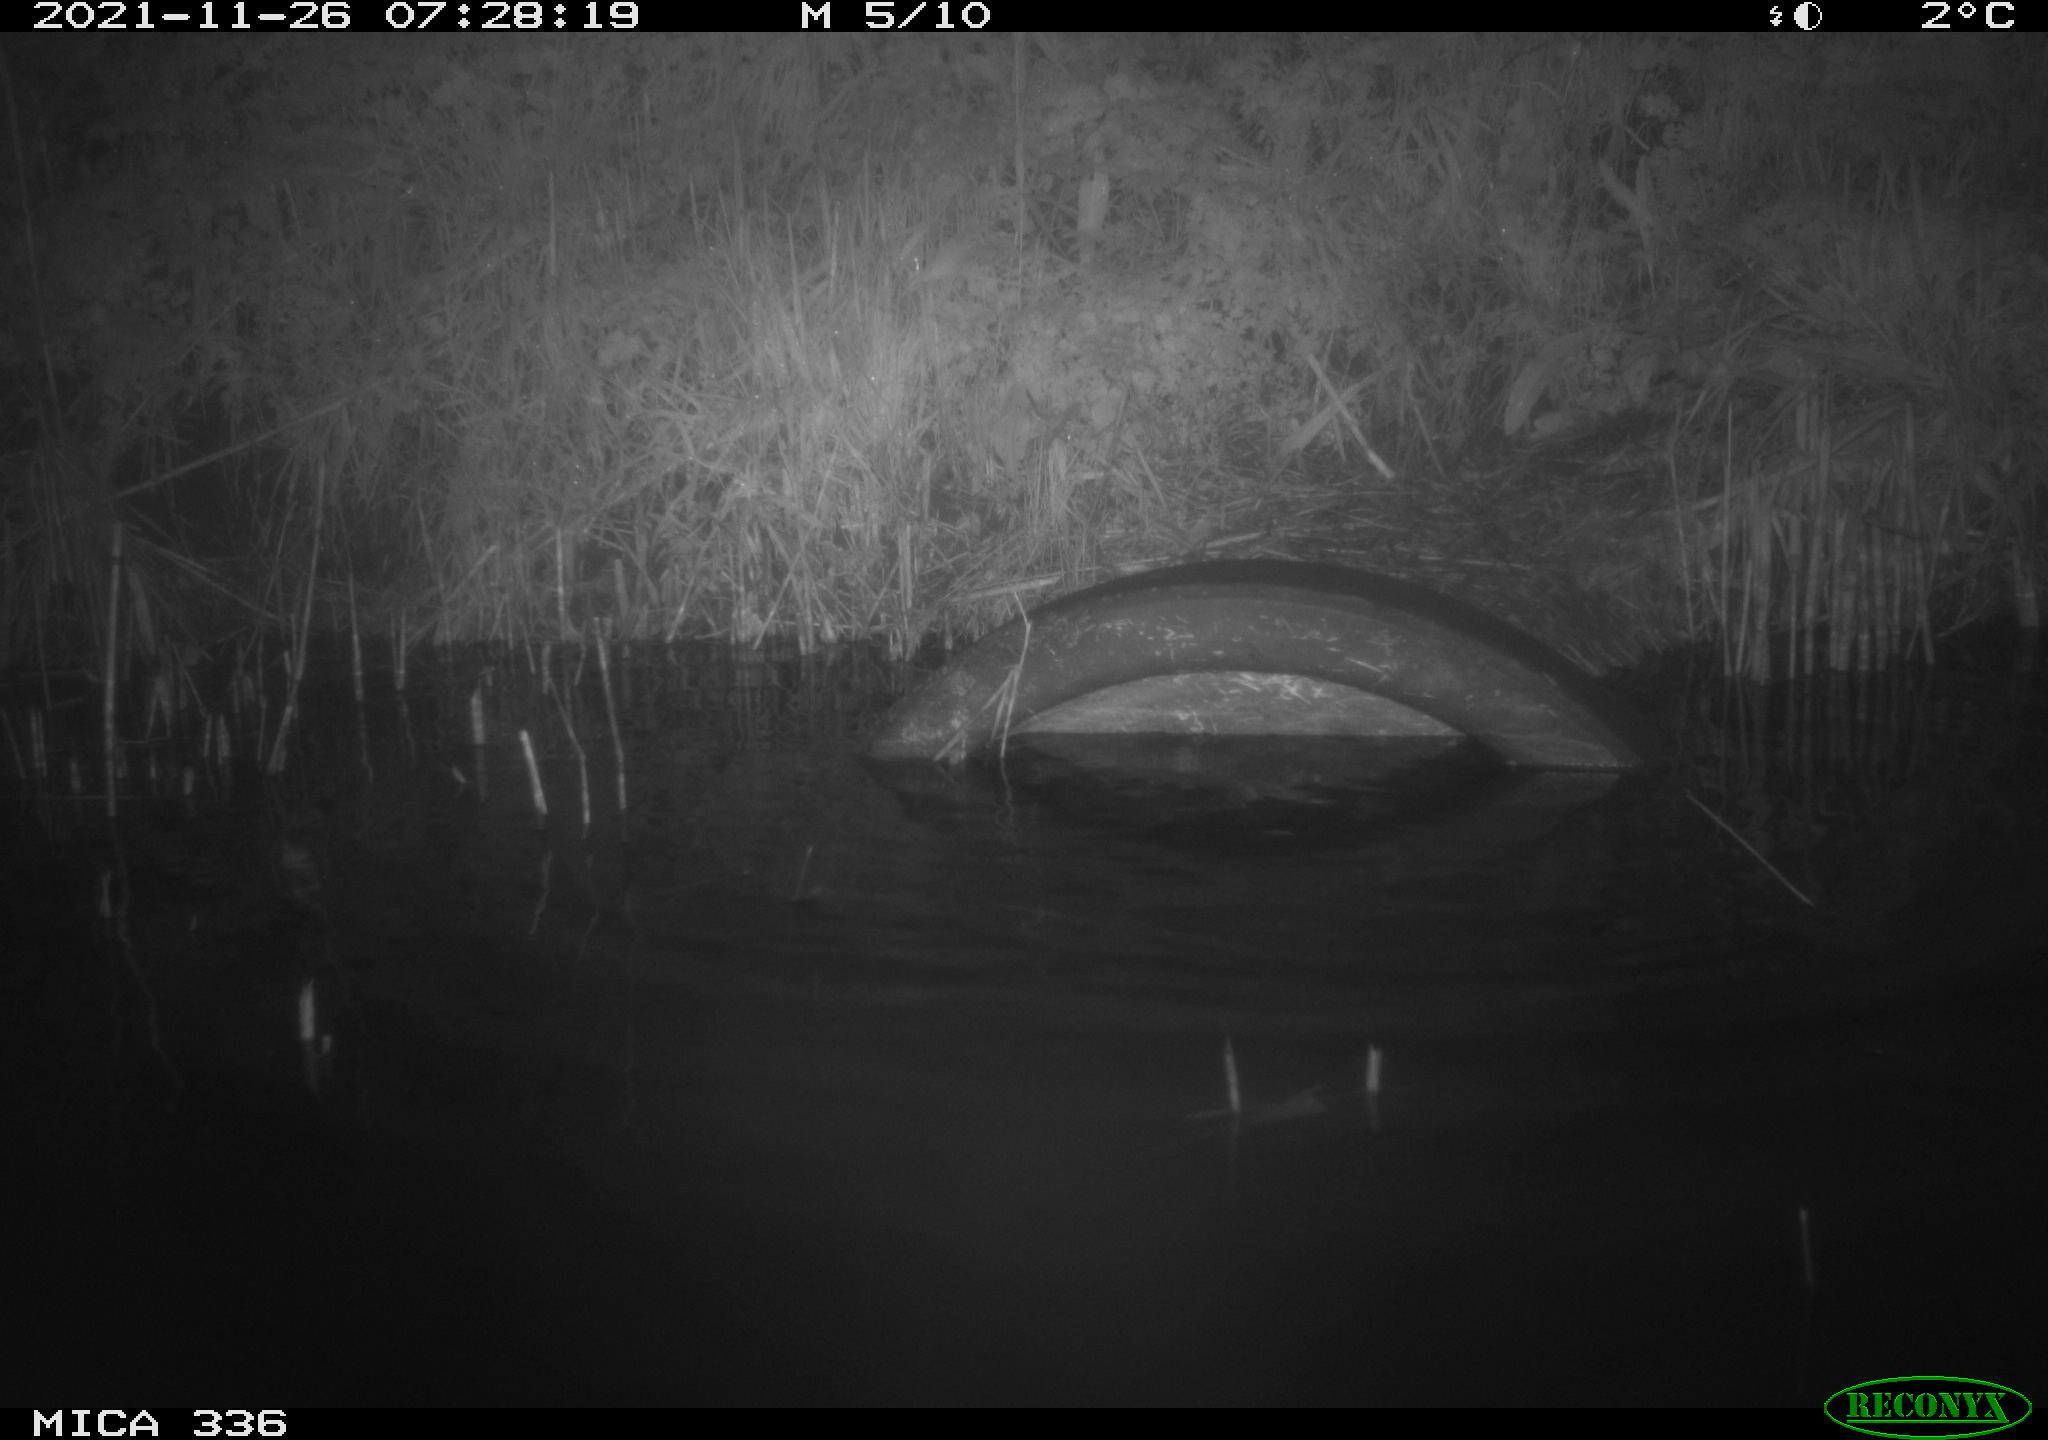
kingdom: Animalia
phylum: Chordata
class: Mammalia
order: Rodentia
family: Muridae
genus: Rattus
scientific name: Rattus norvegicus
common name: Brown rat
